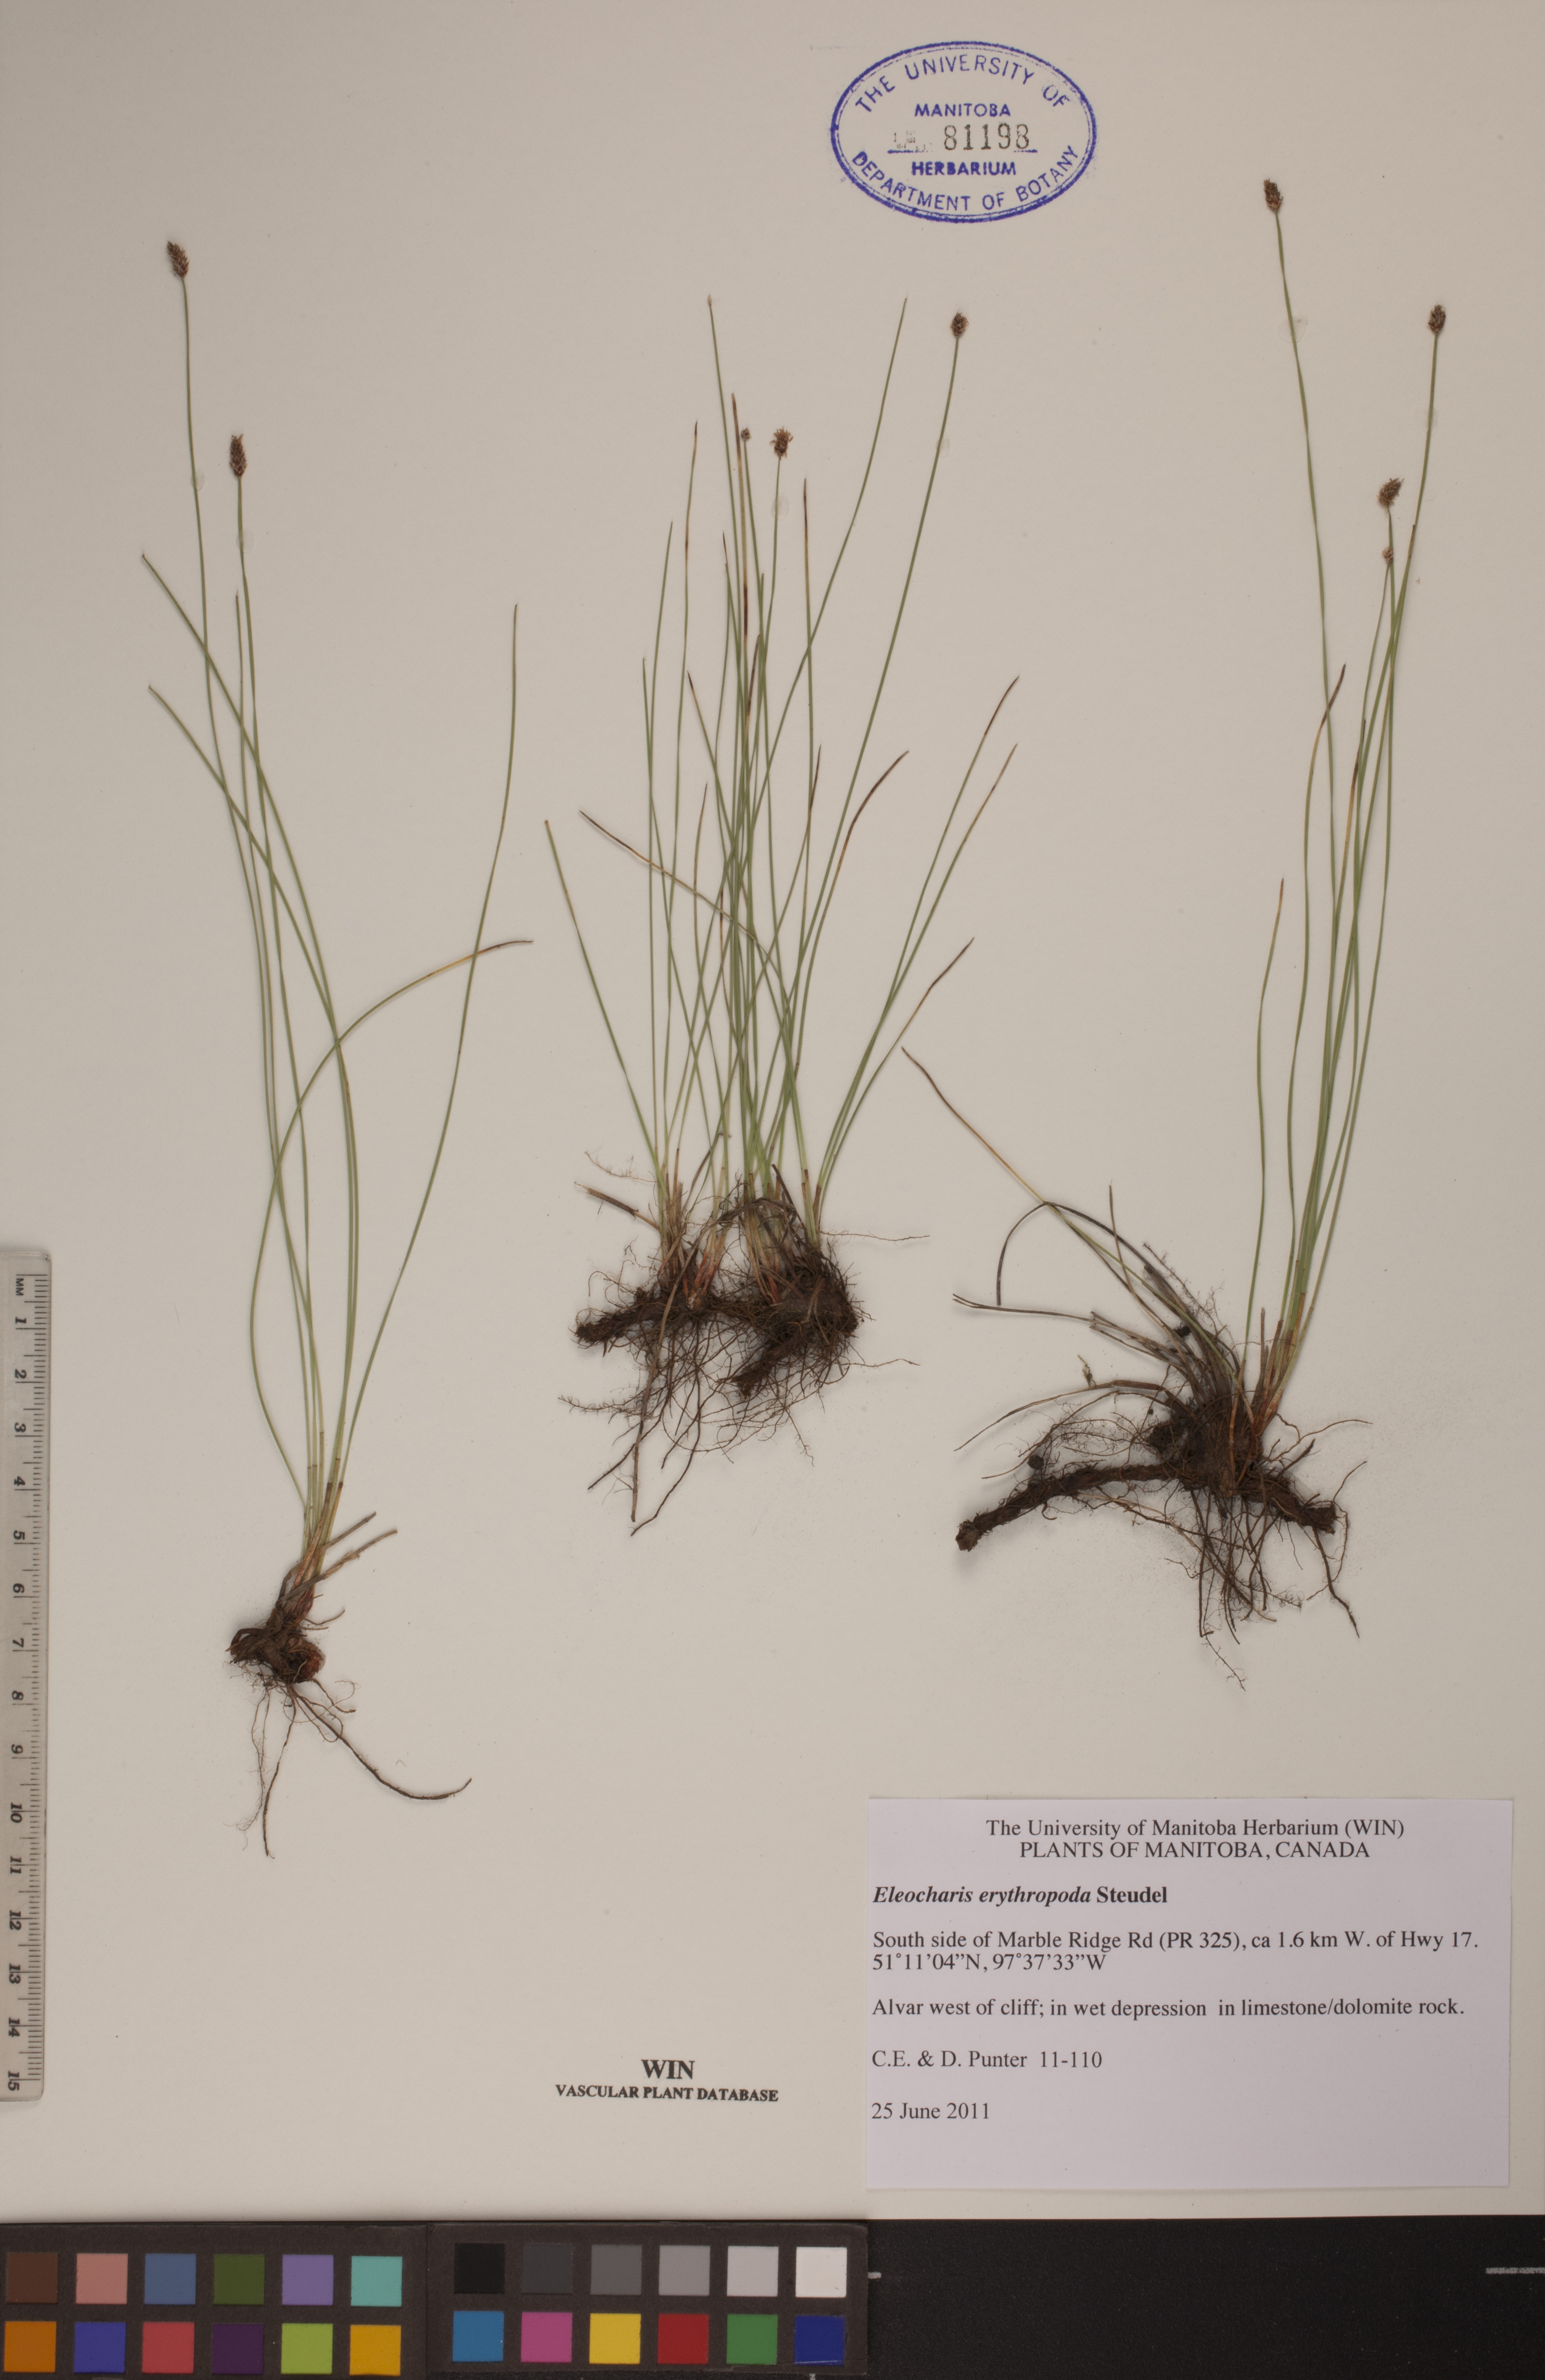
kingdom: Plantae
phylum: Tracheophyta
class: Liliopsida
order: Poales
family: Cyperaceae
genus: Eleocharis
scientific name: Eleocharis erythropoda
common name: Bald spikerush
